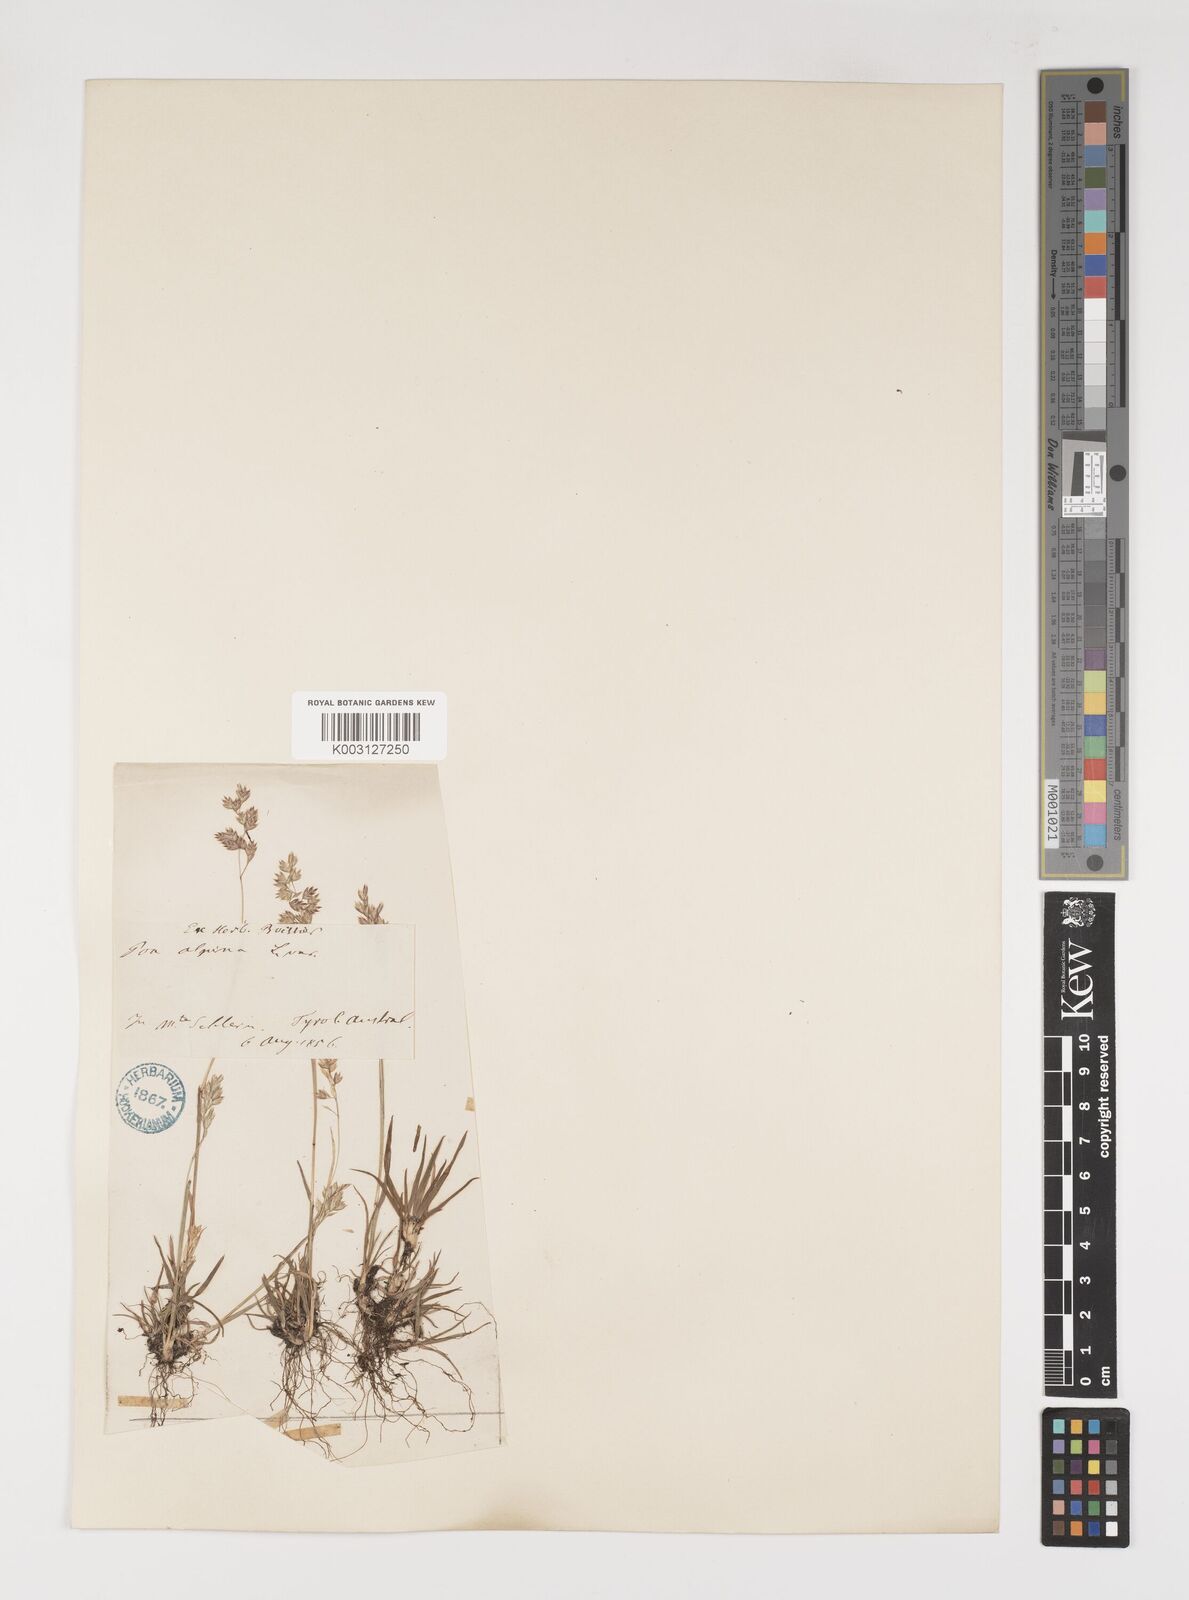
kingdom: Plantae
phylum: Tracheophyta
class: Liliopsida
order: Poales
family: Poaceae
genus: Poa
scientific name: Poa alpina
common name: Alpine bluegrass
